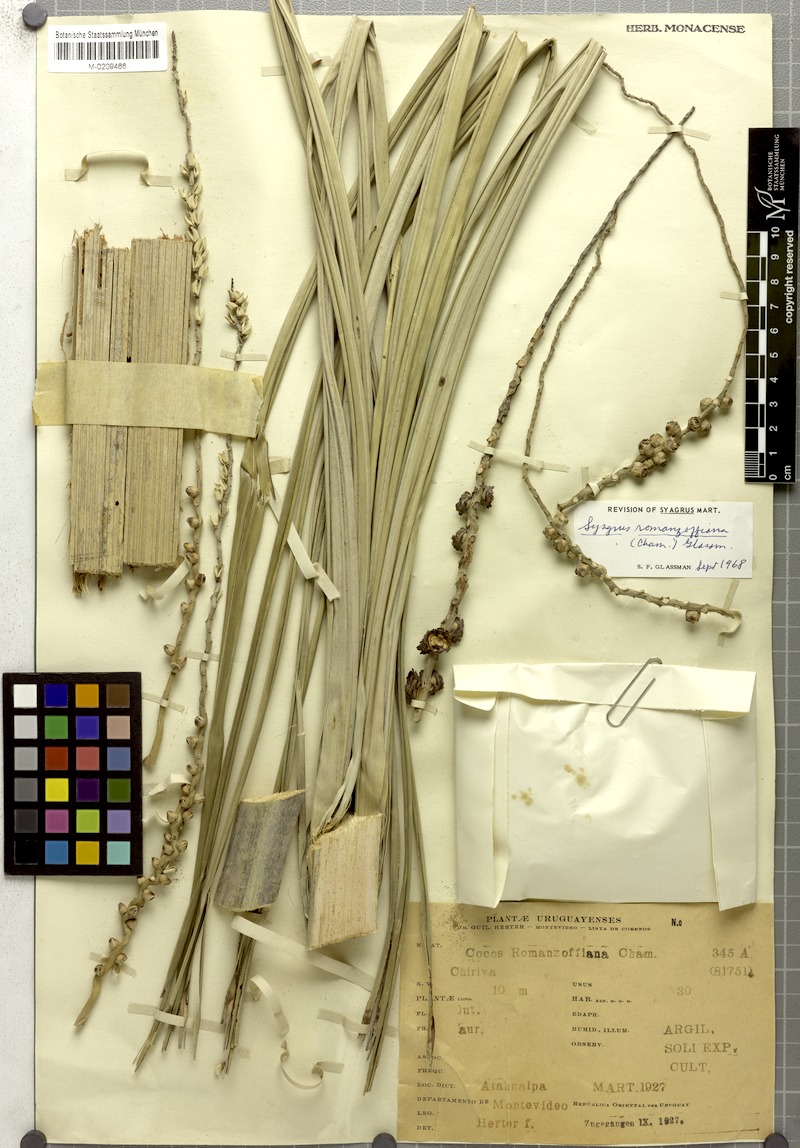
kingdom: Plantae
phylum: Tracheophyta
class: Liliopsida
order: Arecales
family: Arecaceae
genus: Syagrus
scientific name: Syagrus romanzoffiana
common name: Queen palm
